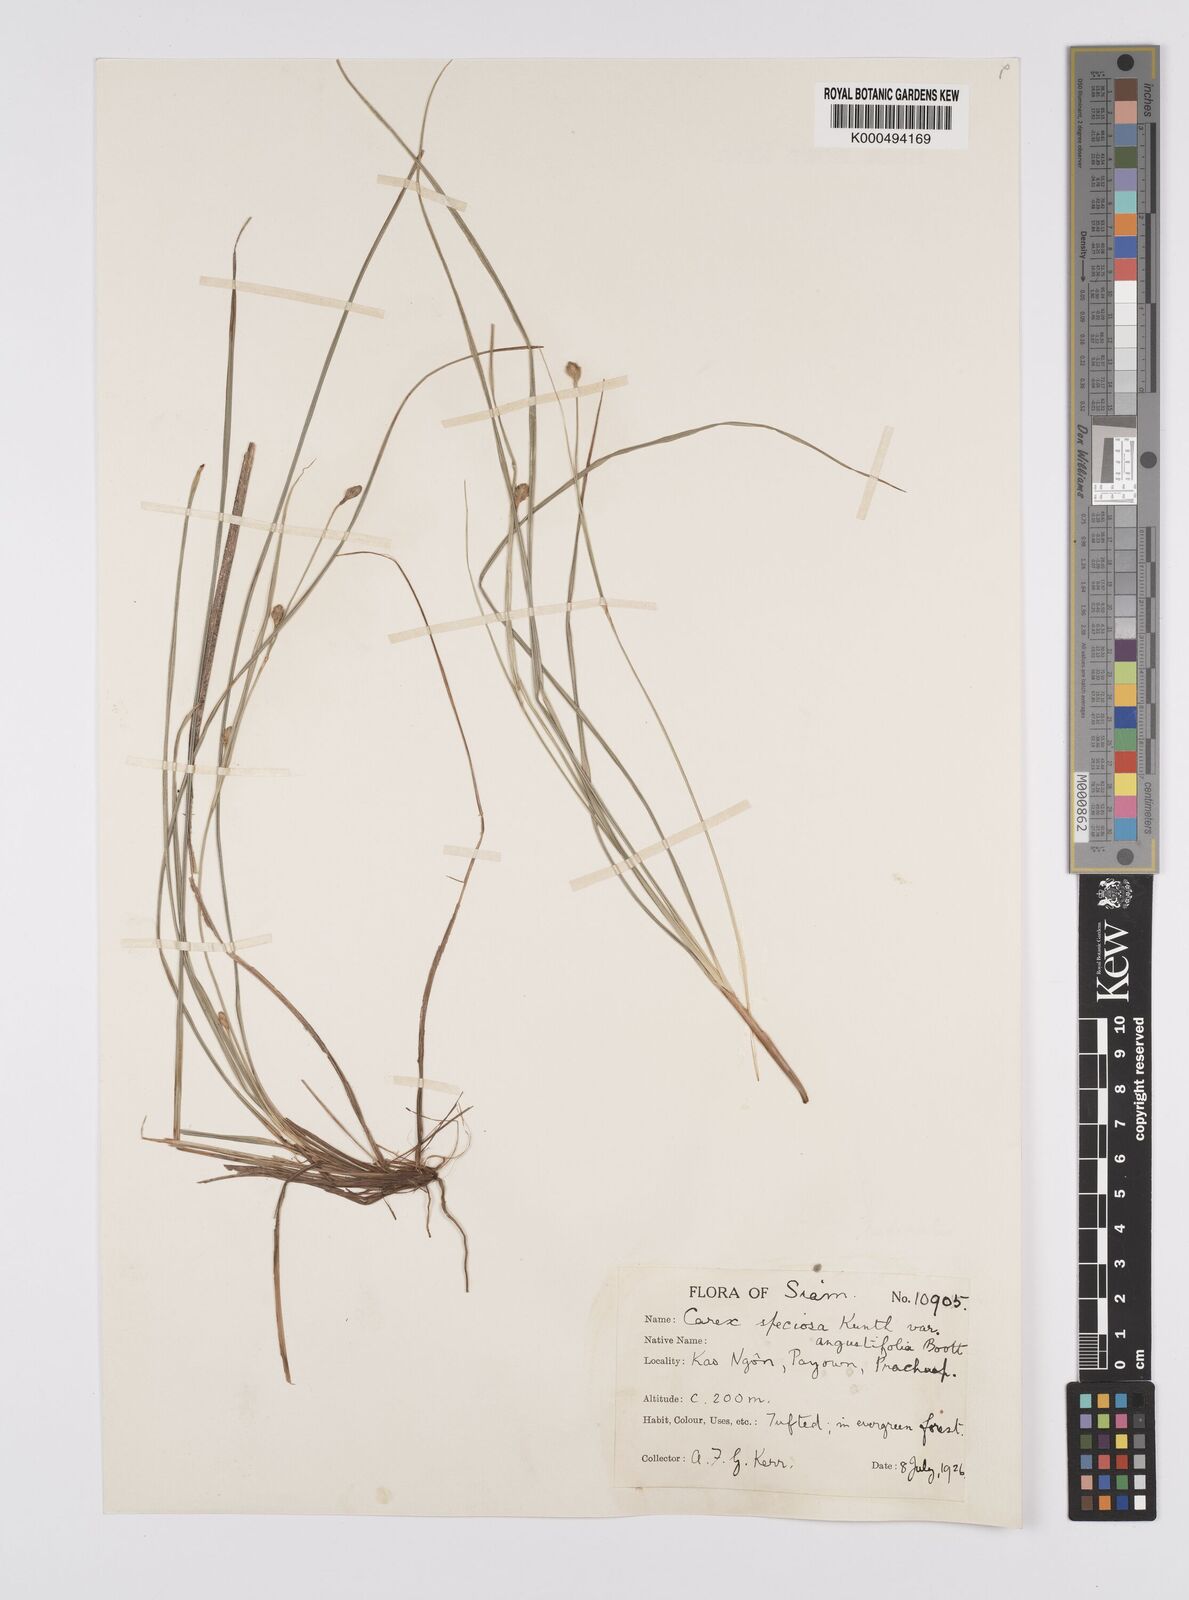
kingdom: Plantae
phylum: Tracheophyta
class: Liliopsida
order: Poales
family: Cyperaceae
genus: Carex
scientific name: Carex speciosa
